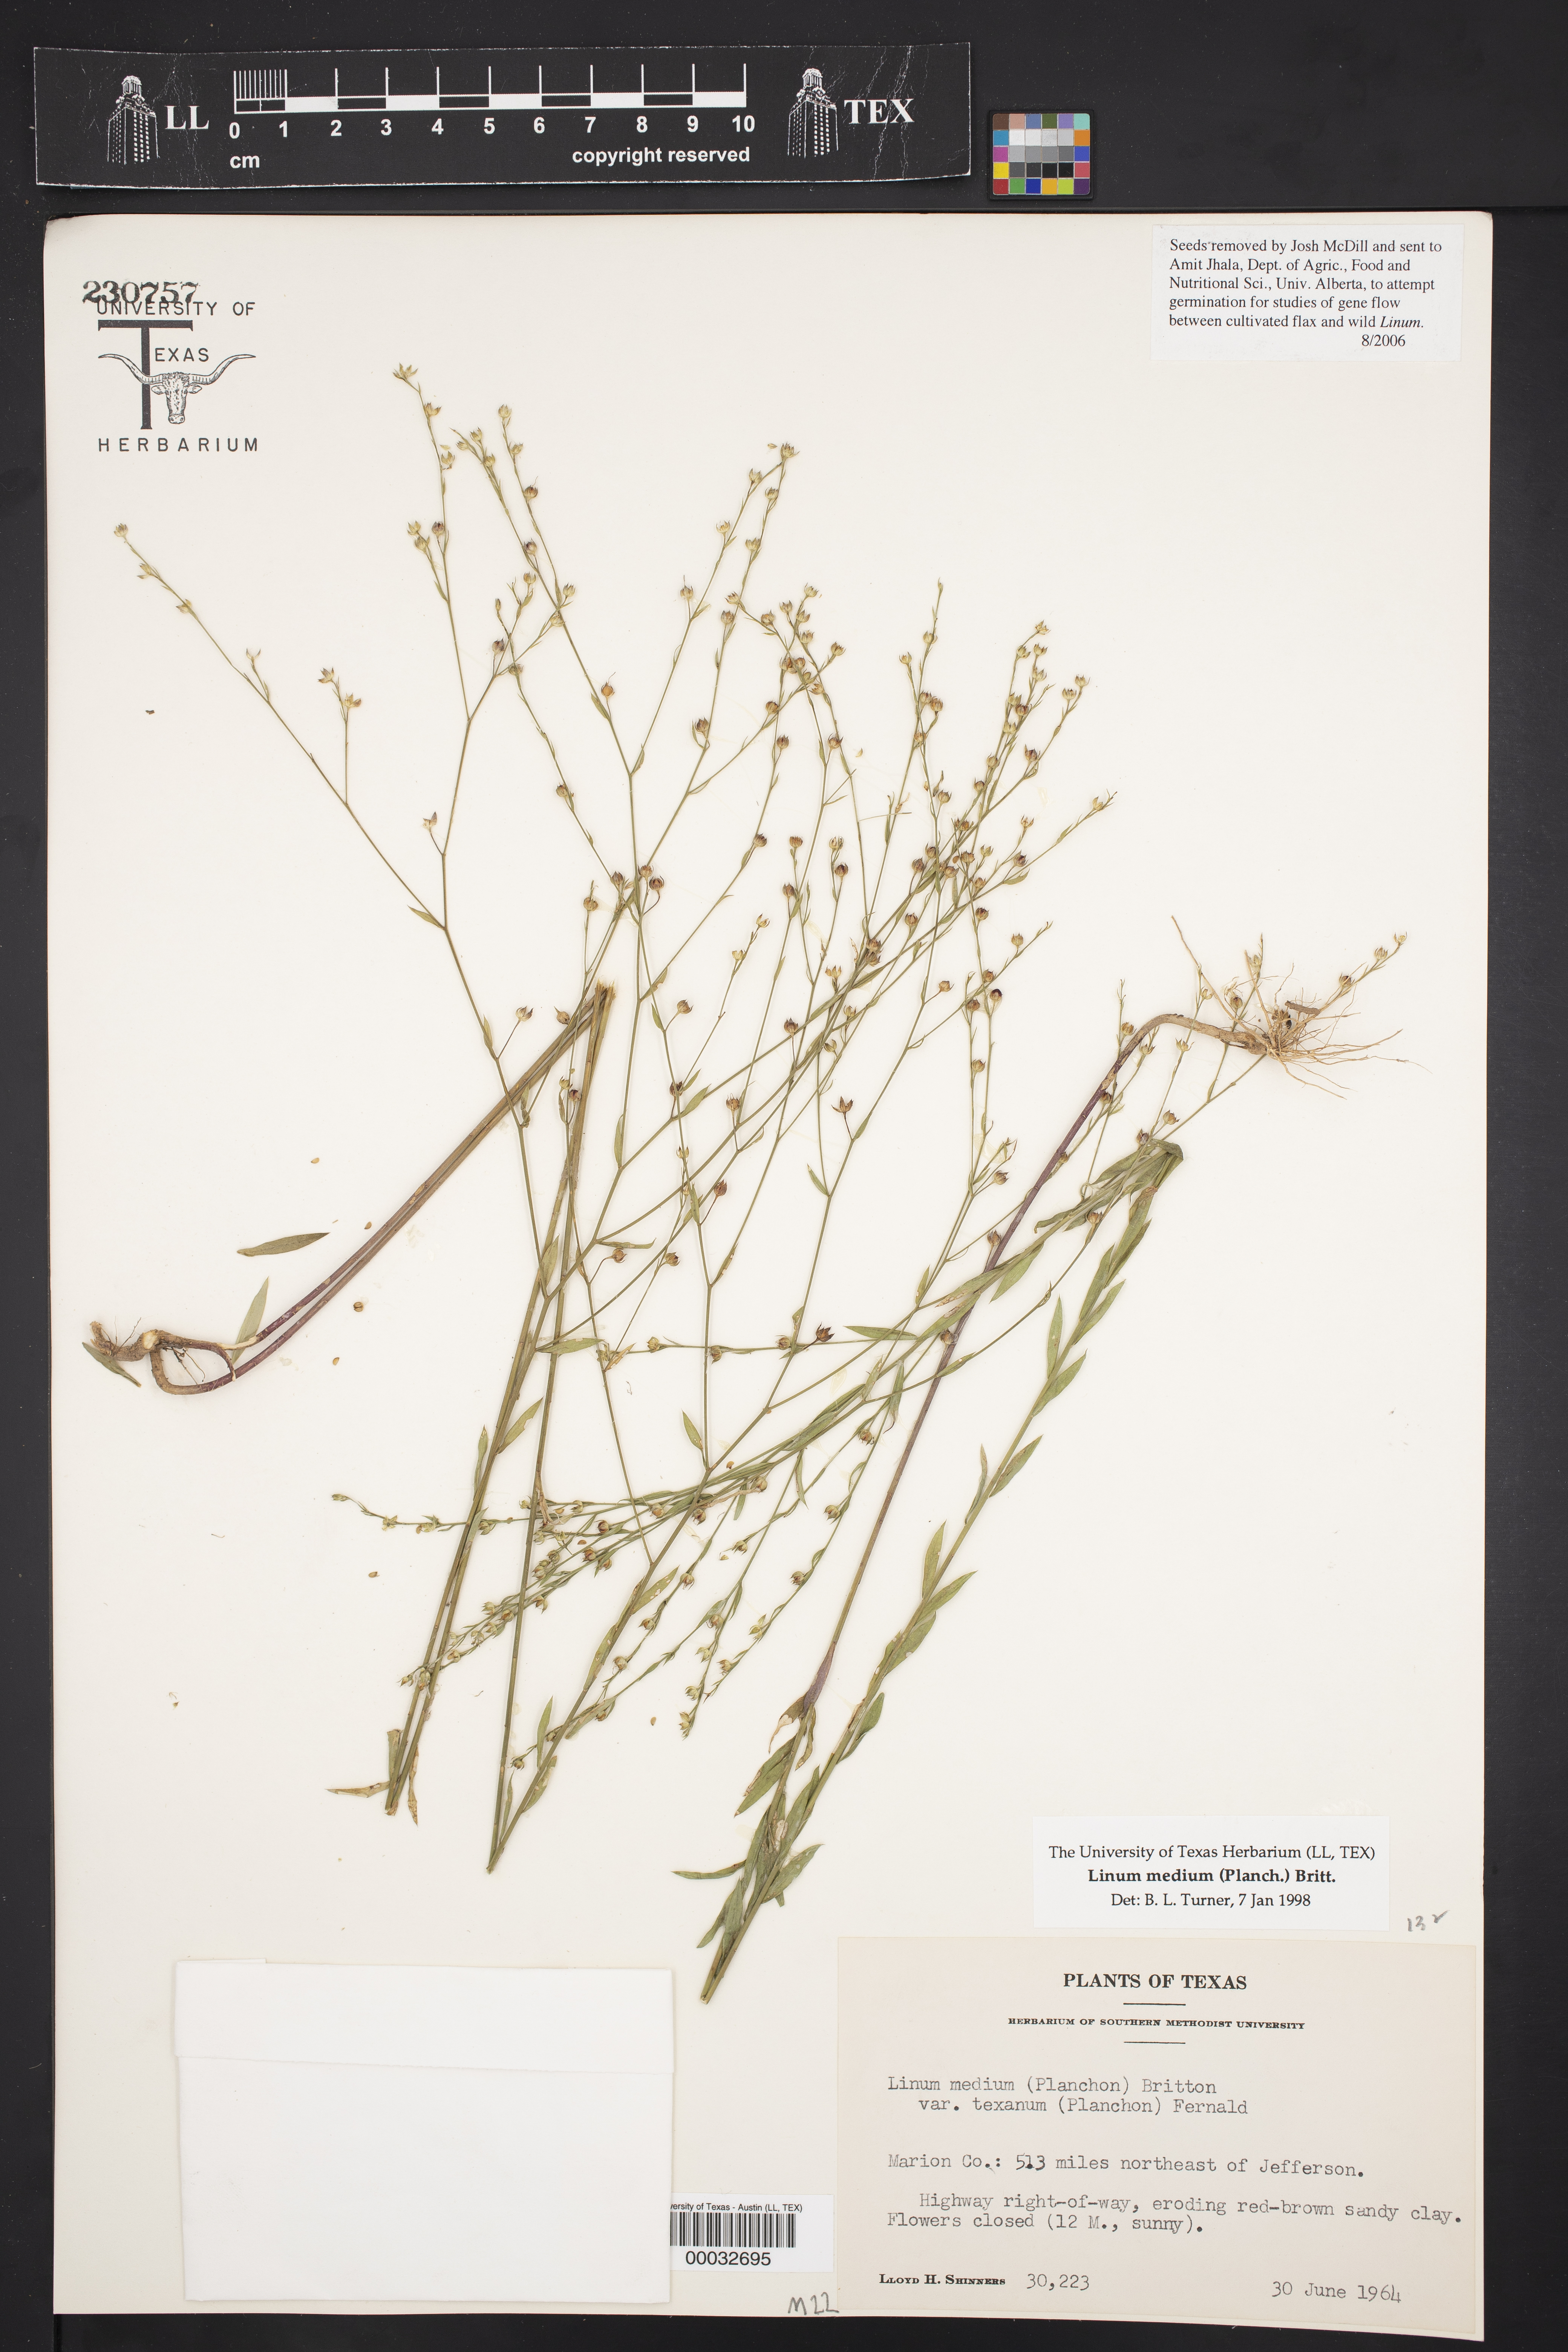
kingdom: Plantae
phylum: Tracheophyta
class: Magnoliopsida
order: Malpighiales
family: Linaceae
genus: Linum
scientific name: Linum medium
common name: Stiff yellow flax
